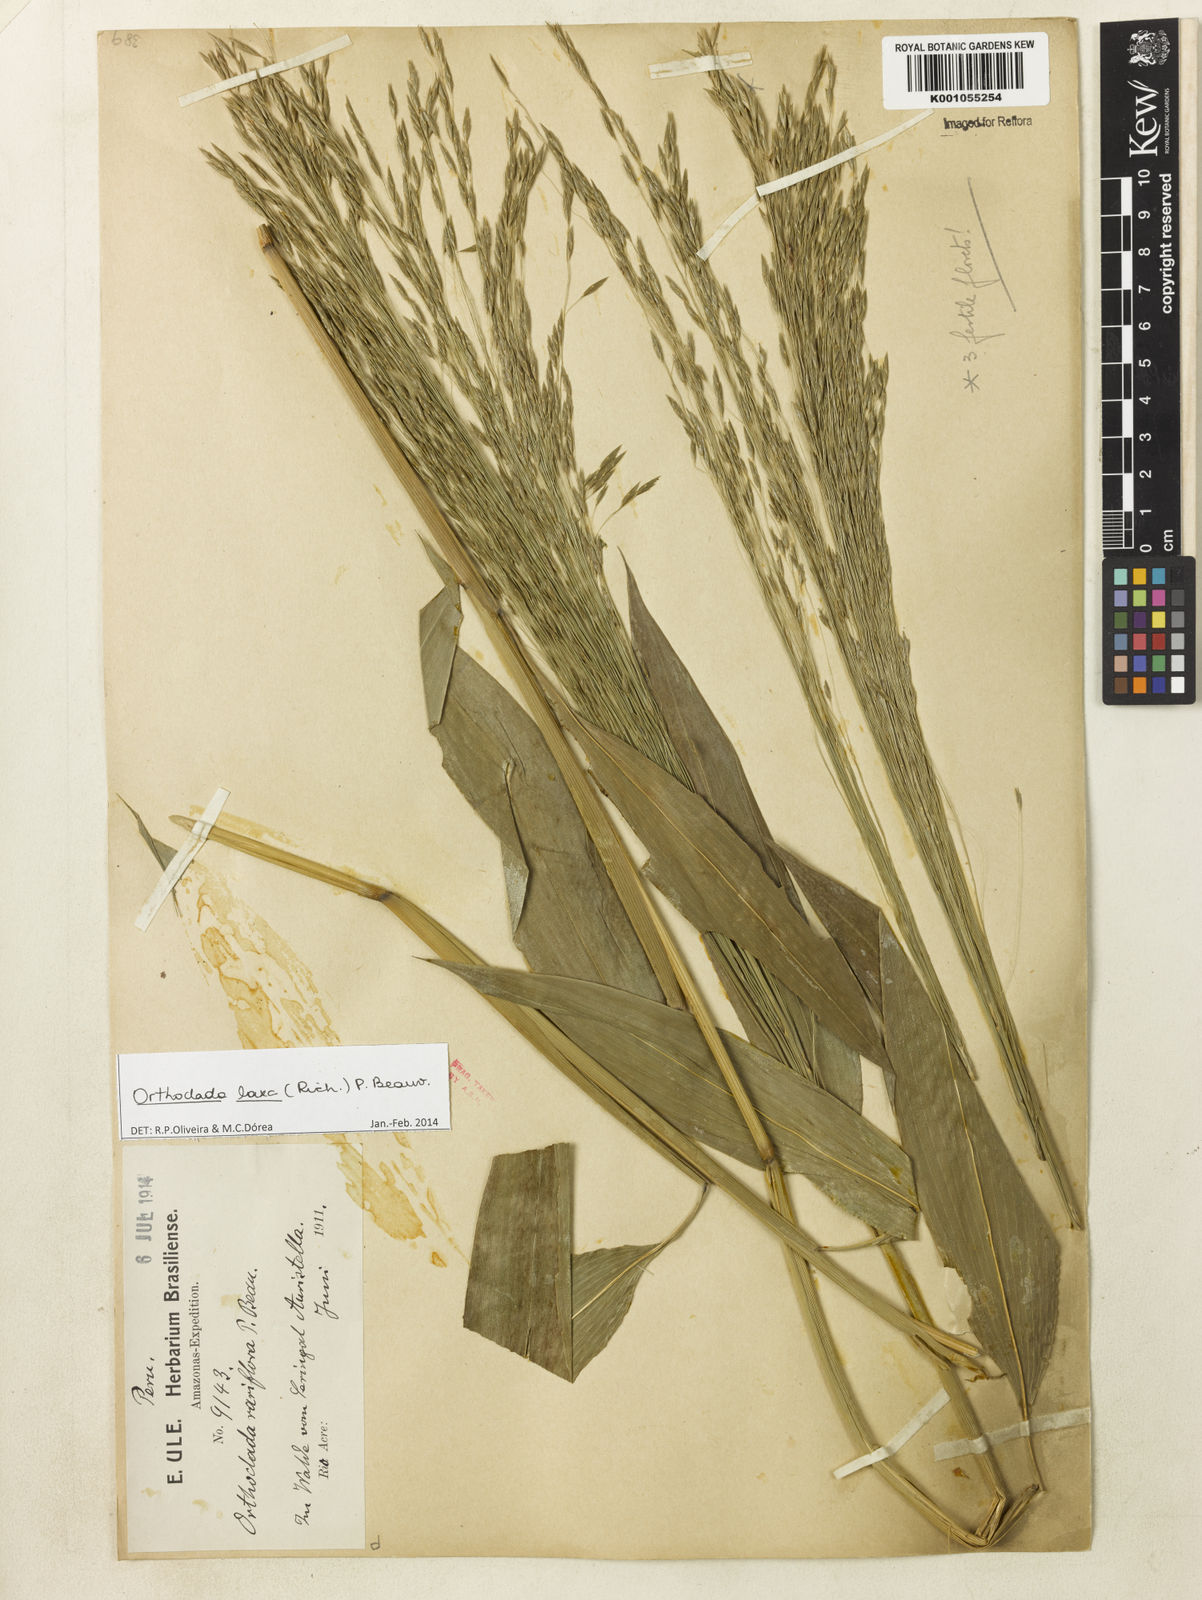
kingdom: Plantae
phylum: Tracheophyta
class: Liliopsida
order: Poales
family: Poaceae
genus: Orthoclada
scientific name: Orthoclada laxa
